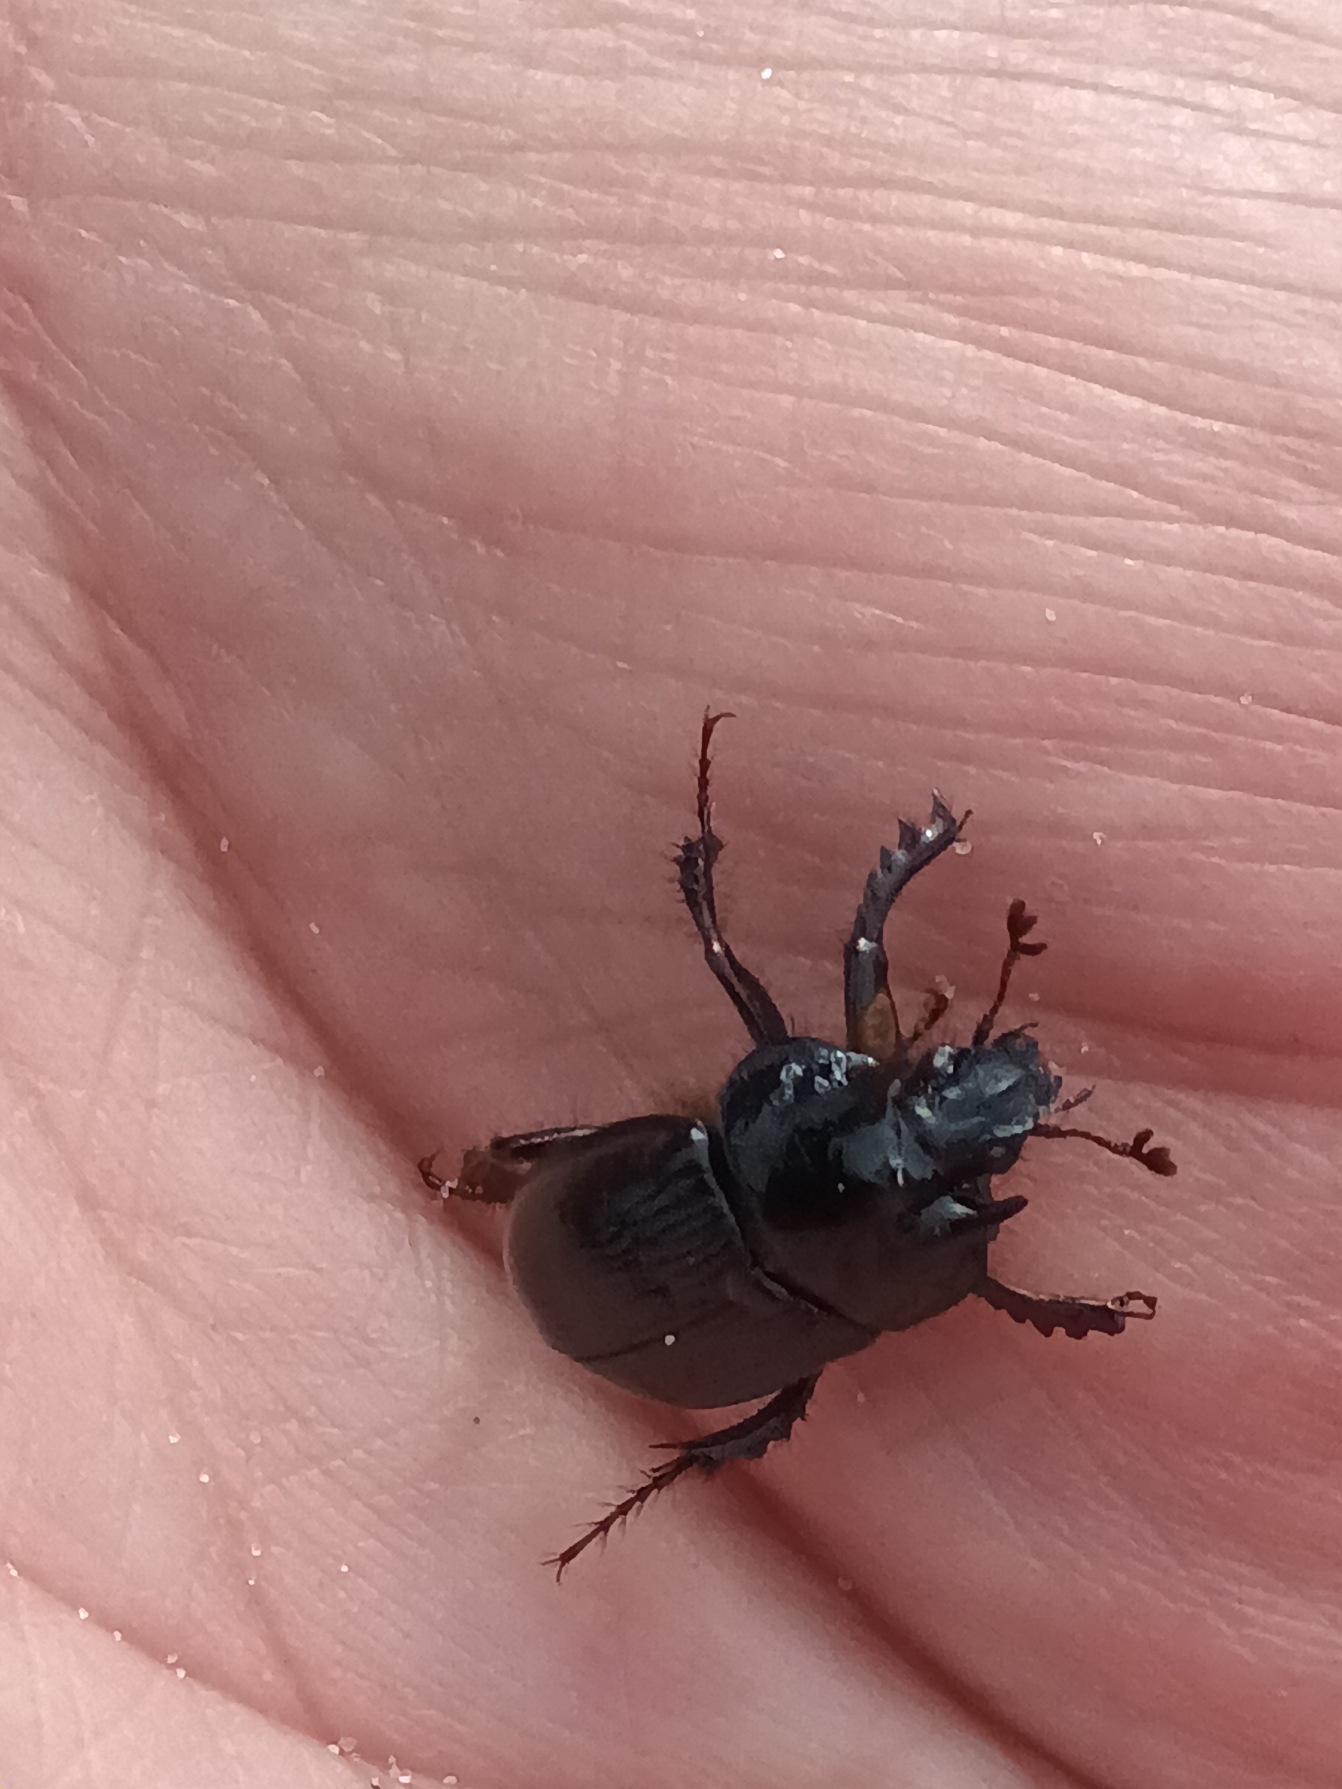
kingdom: Animalia
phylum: Arthropoda
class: Insecta
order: Coleoptera
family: Geotrupidae
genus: Typhaeus
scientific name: Typhaeus typhoeus
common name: Trehornet skarnbasse
